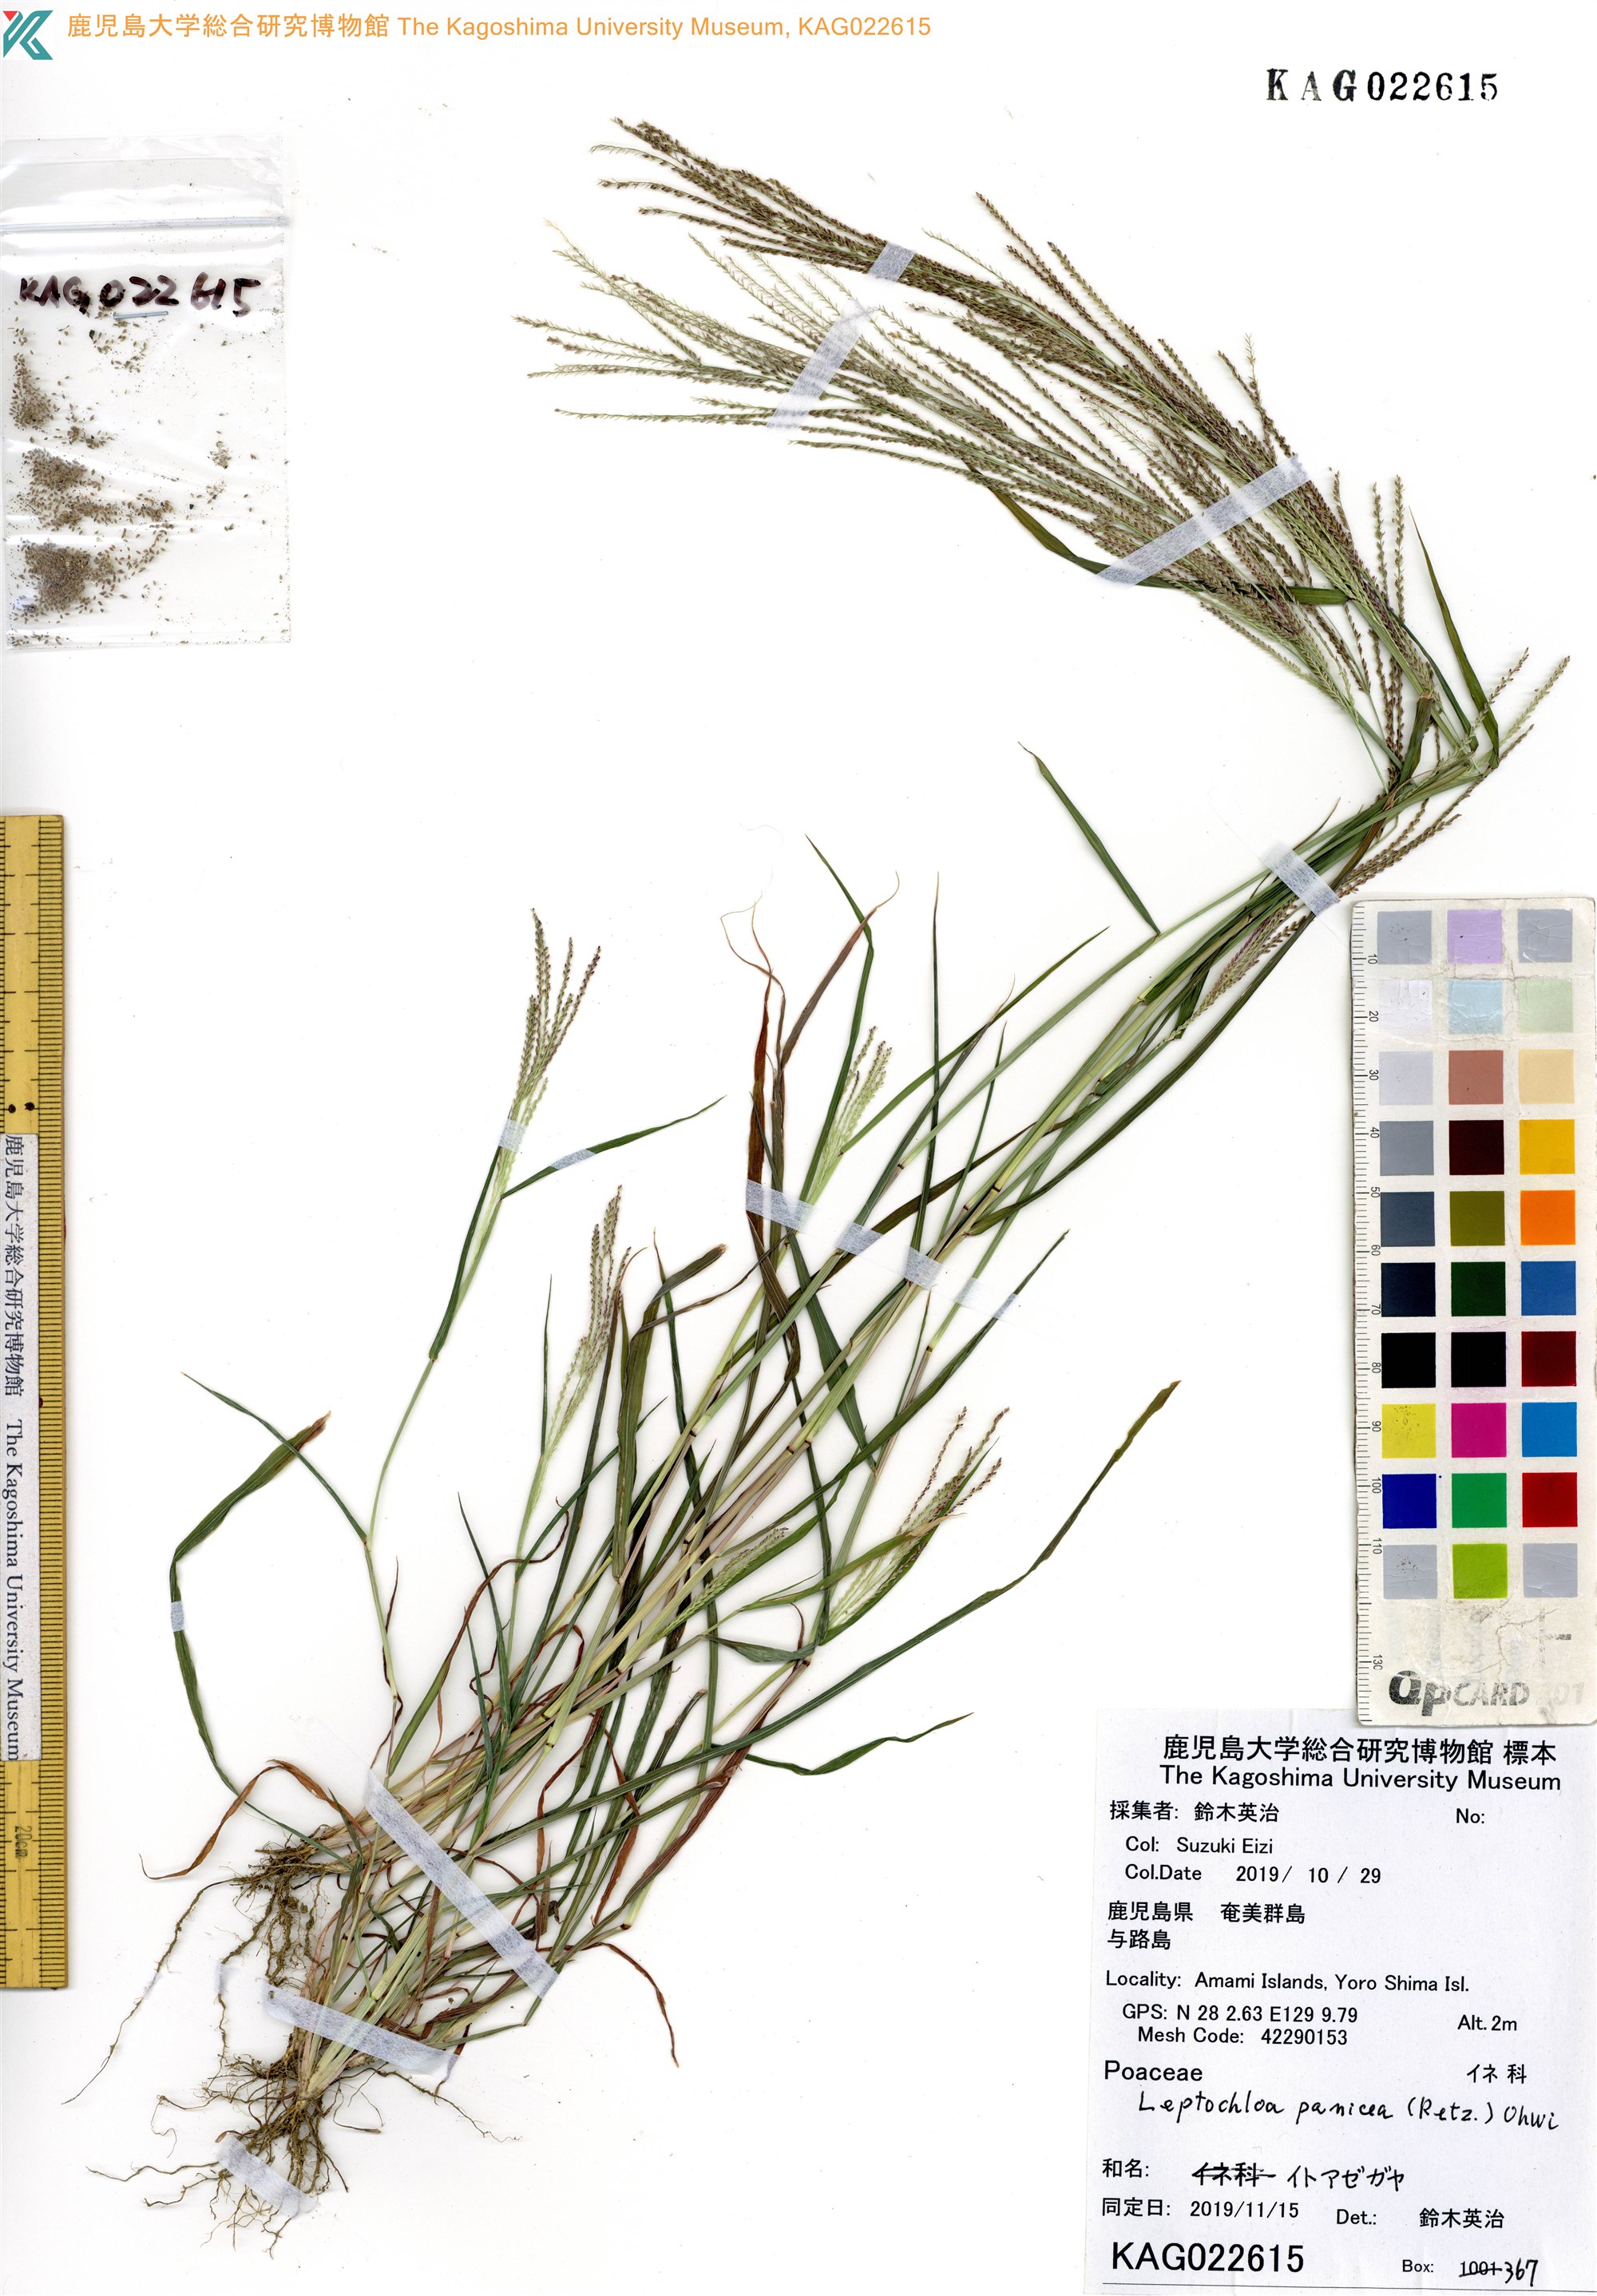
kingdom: Plantae
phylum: Tracheophyta
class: Liliopsida
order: Poales
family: Poaceae
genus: Leptochloa
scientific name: Leptochloa panicea
